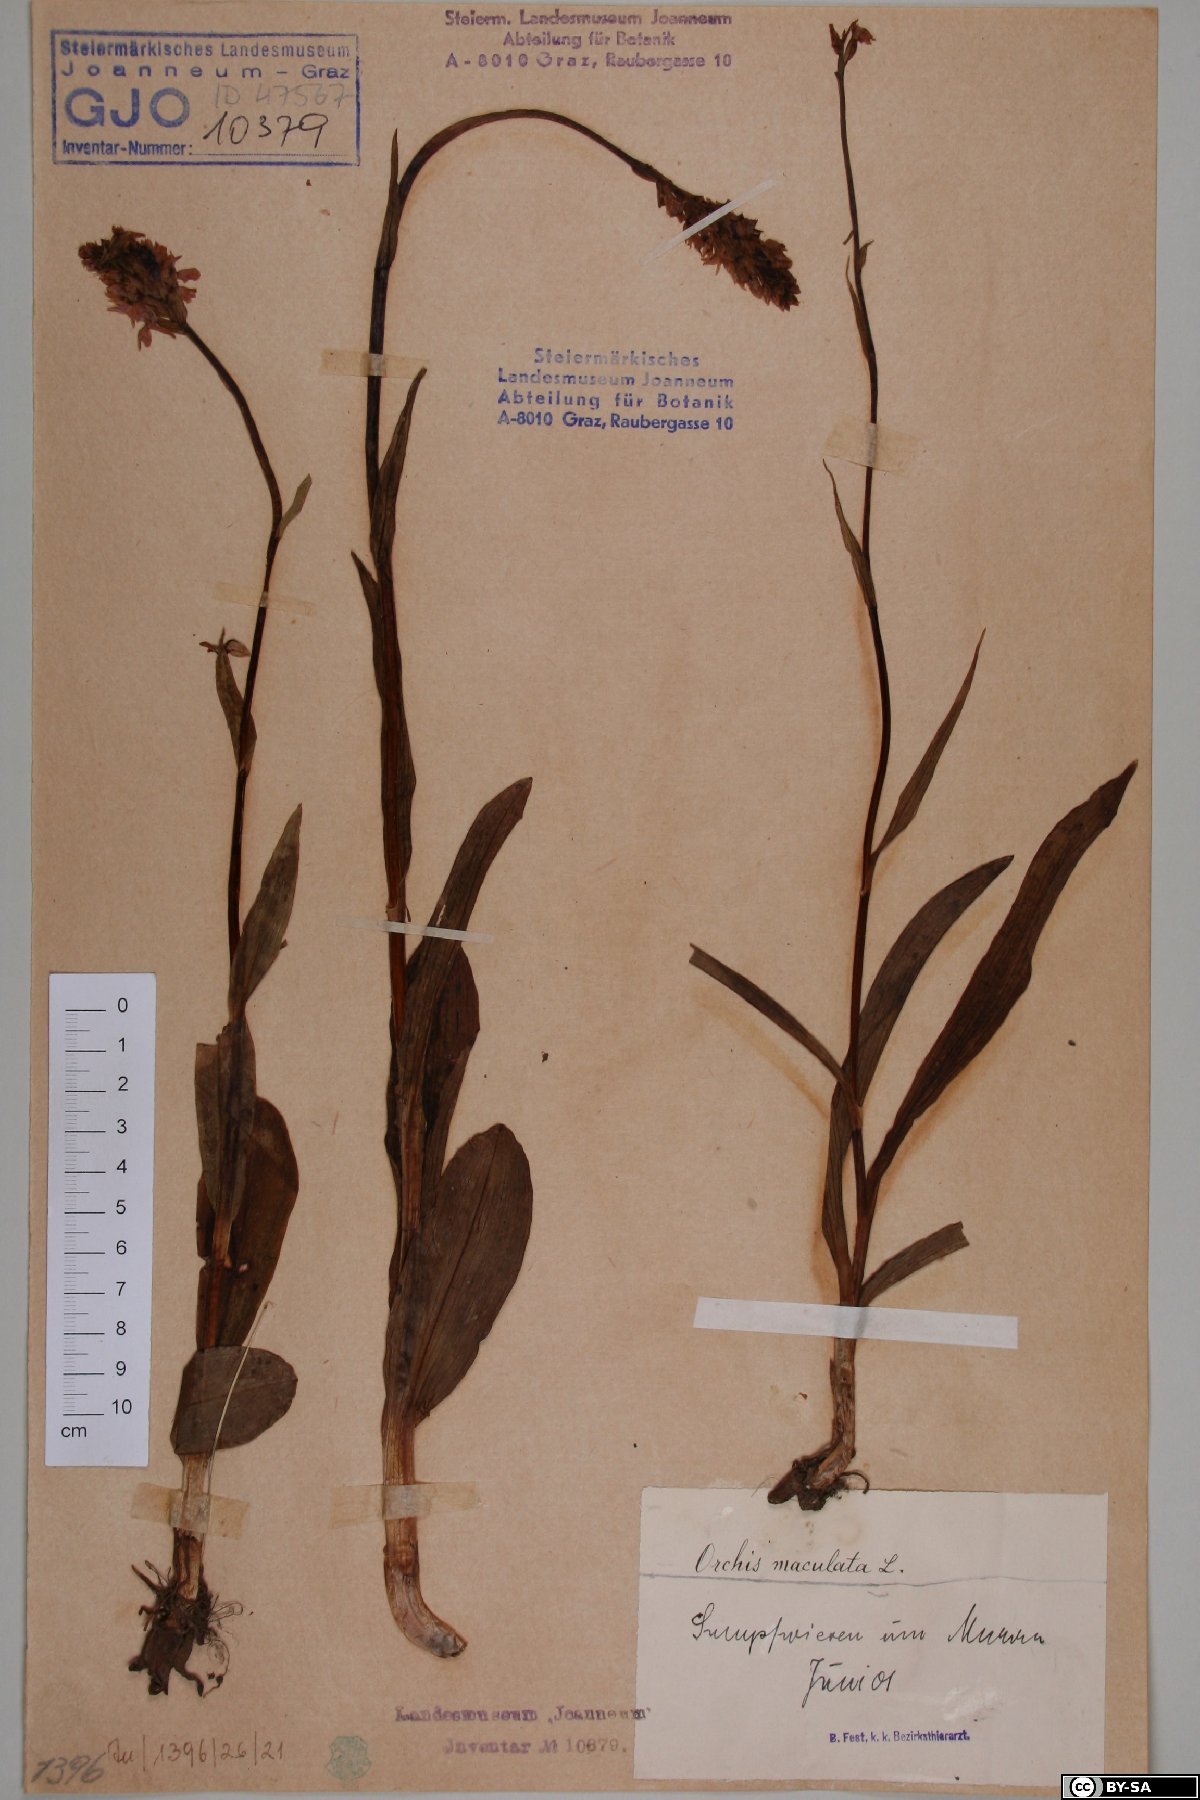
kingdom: Plantae
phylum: Tracheophyta
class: Liliopsida
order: Asparagales
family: Orchidaceae
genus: Dactylorhiza
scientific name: Dactylorhiza maculata
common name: Heath spotted-orchid
